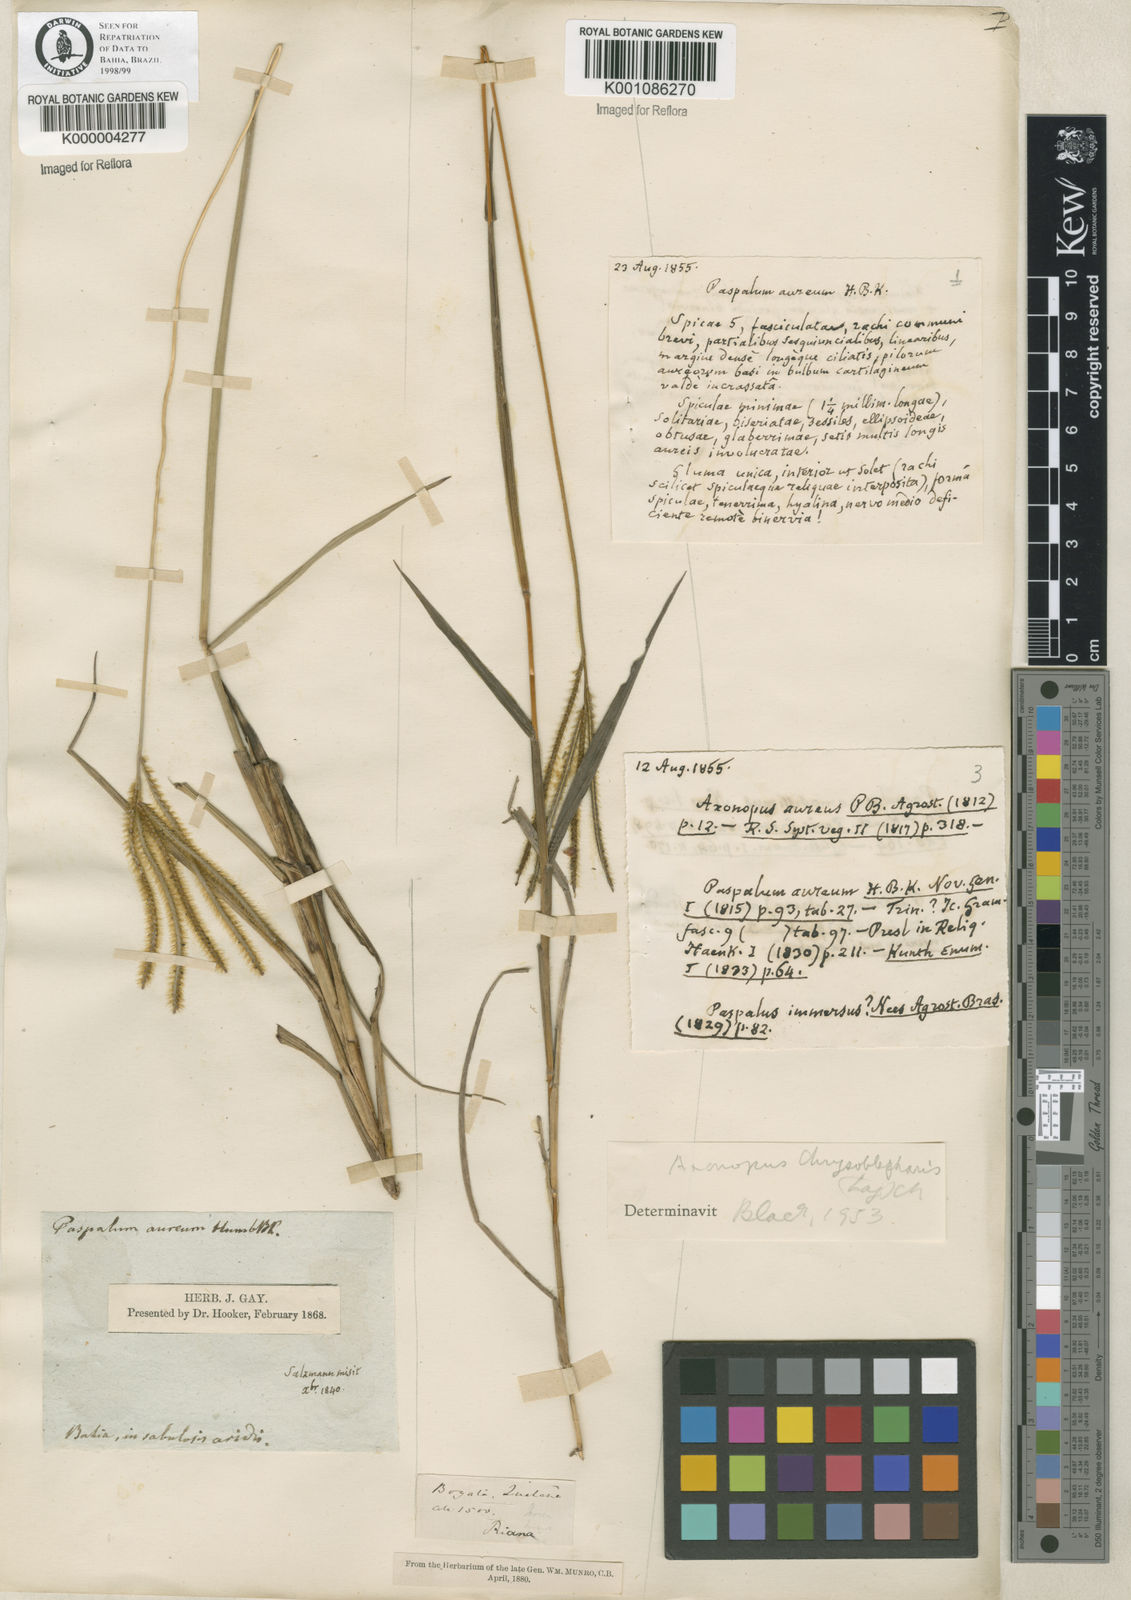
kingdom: Plantae
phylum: Tracheophyta
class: Liliopsida
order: Poales
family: Poaceae
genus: Axonopus
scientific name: Axonopus chrysoblepharis
